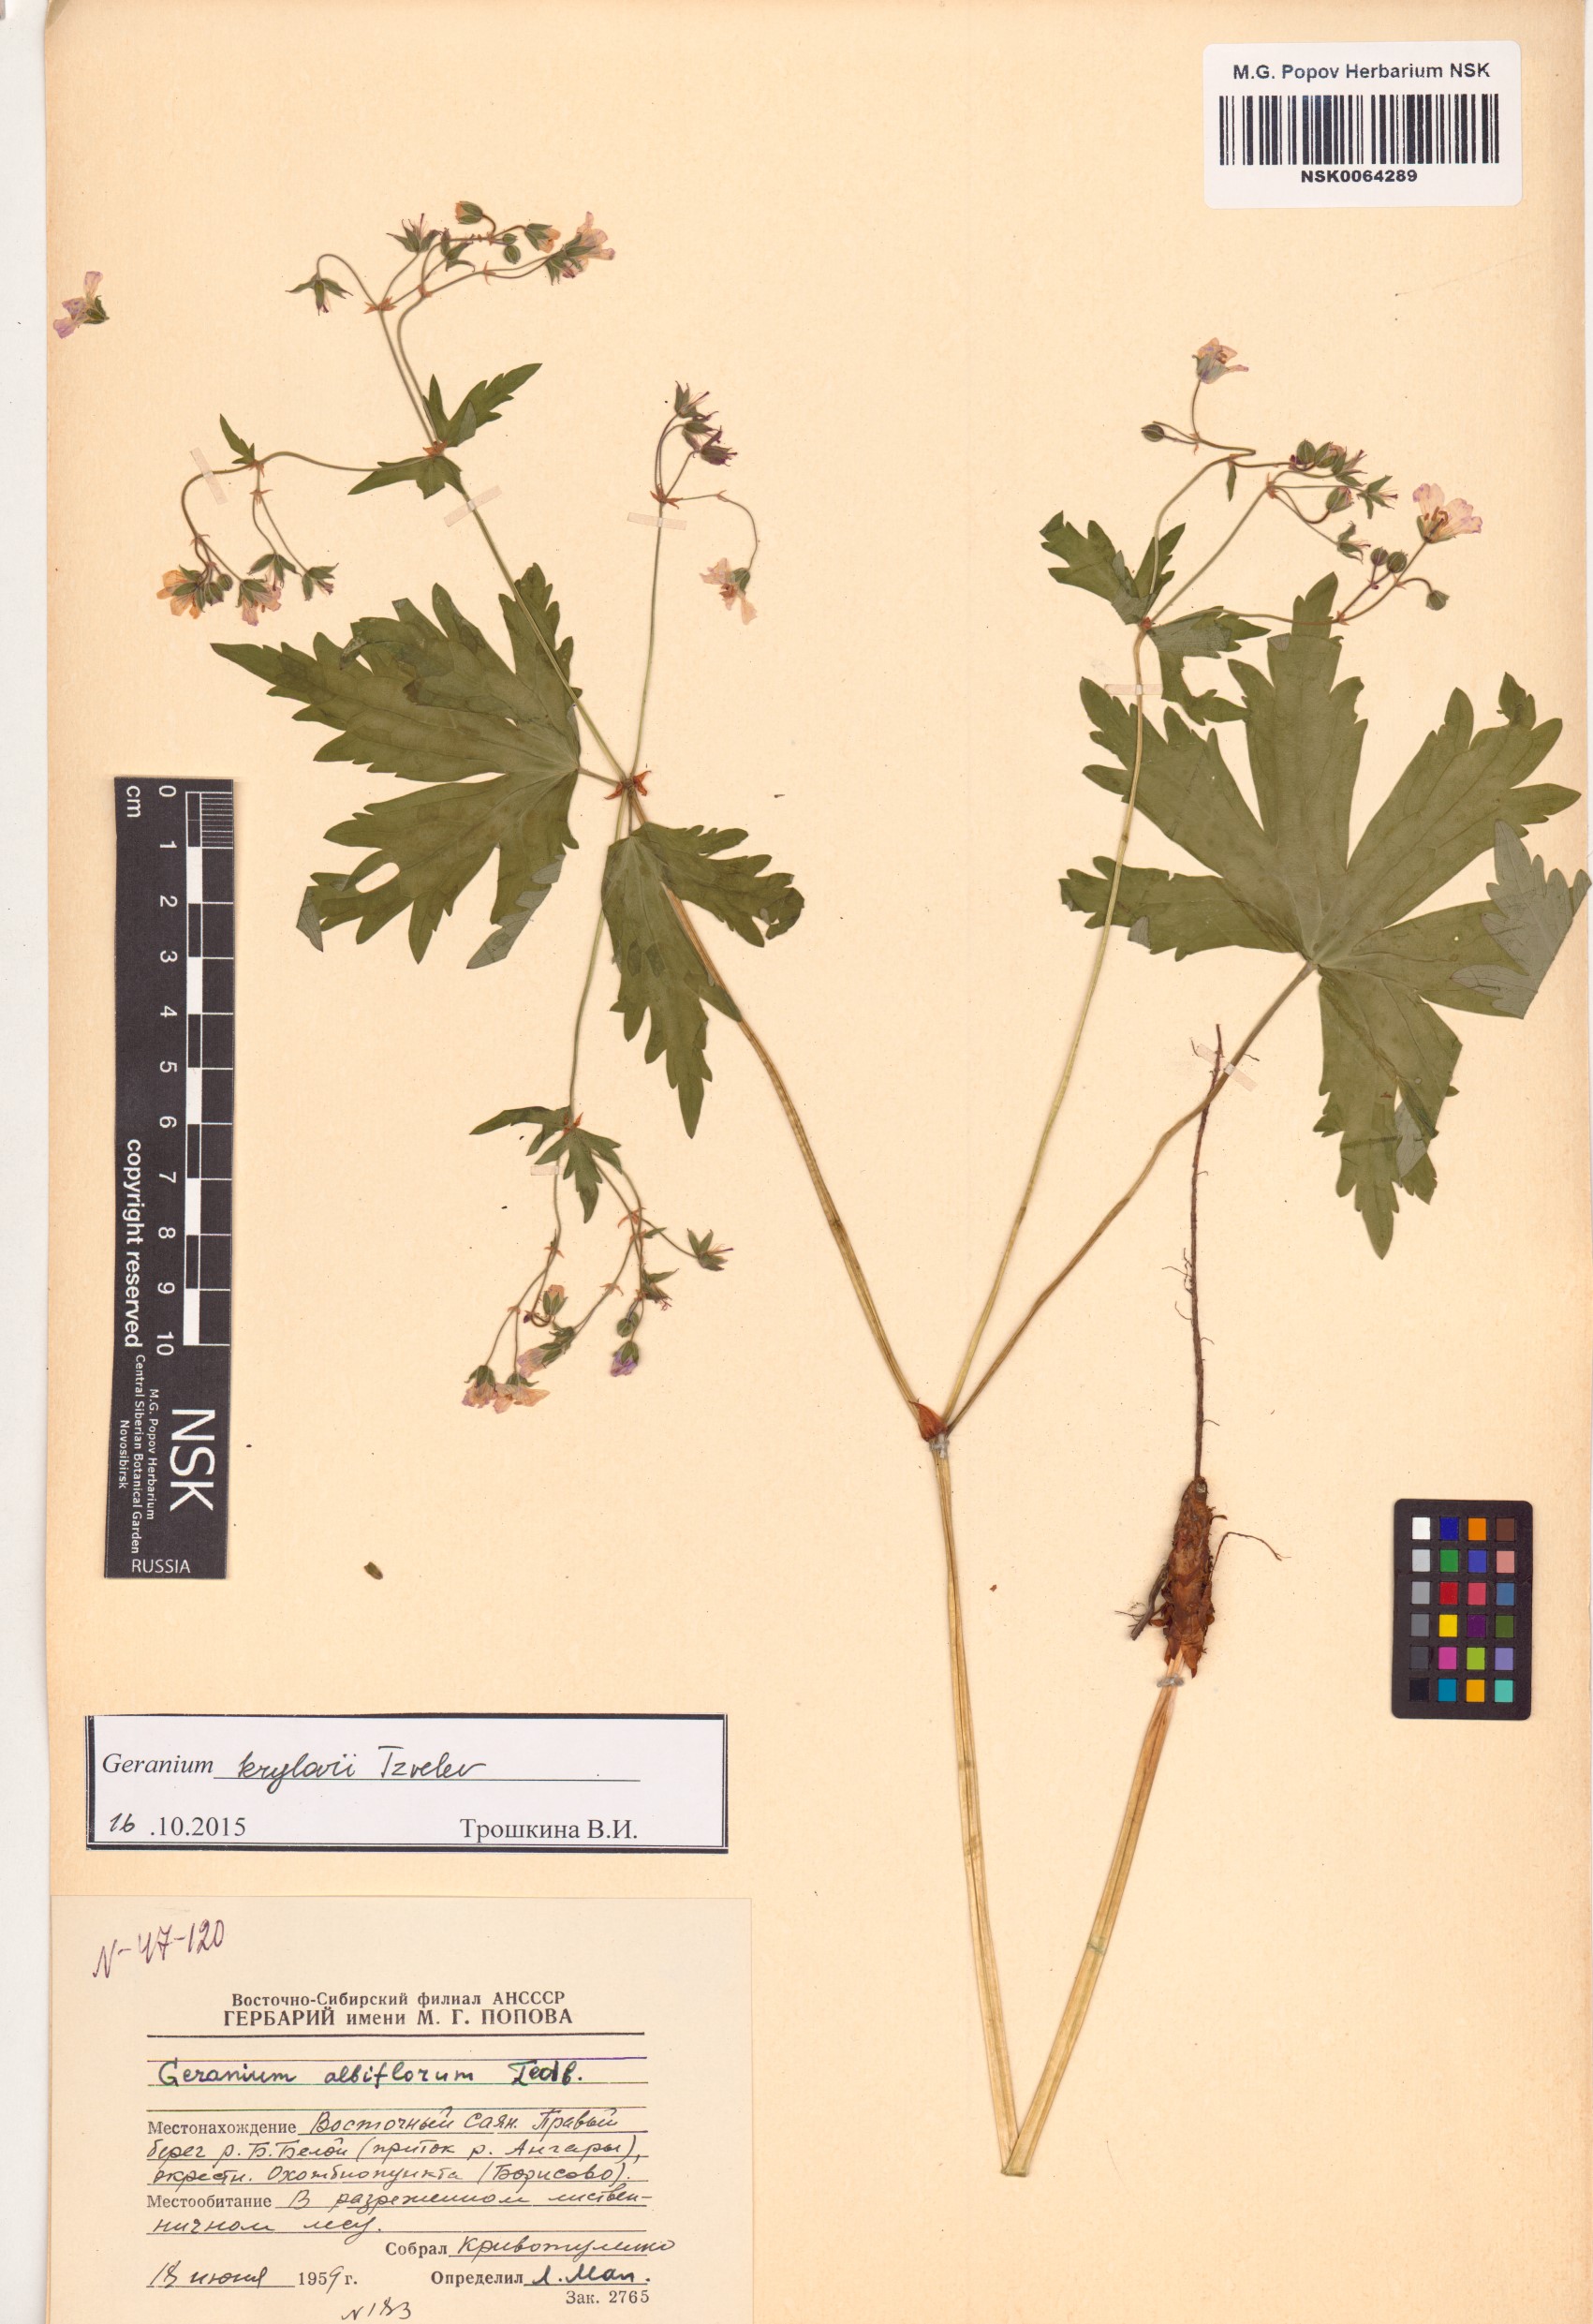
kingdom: Plantae
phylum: Tracheophyta
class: Magnoliopsida
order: Geraniales
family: Geraniaceae
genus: Geranium
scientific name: Geranium sylvaticum
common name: Wood crane's-bill
